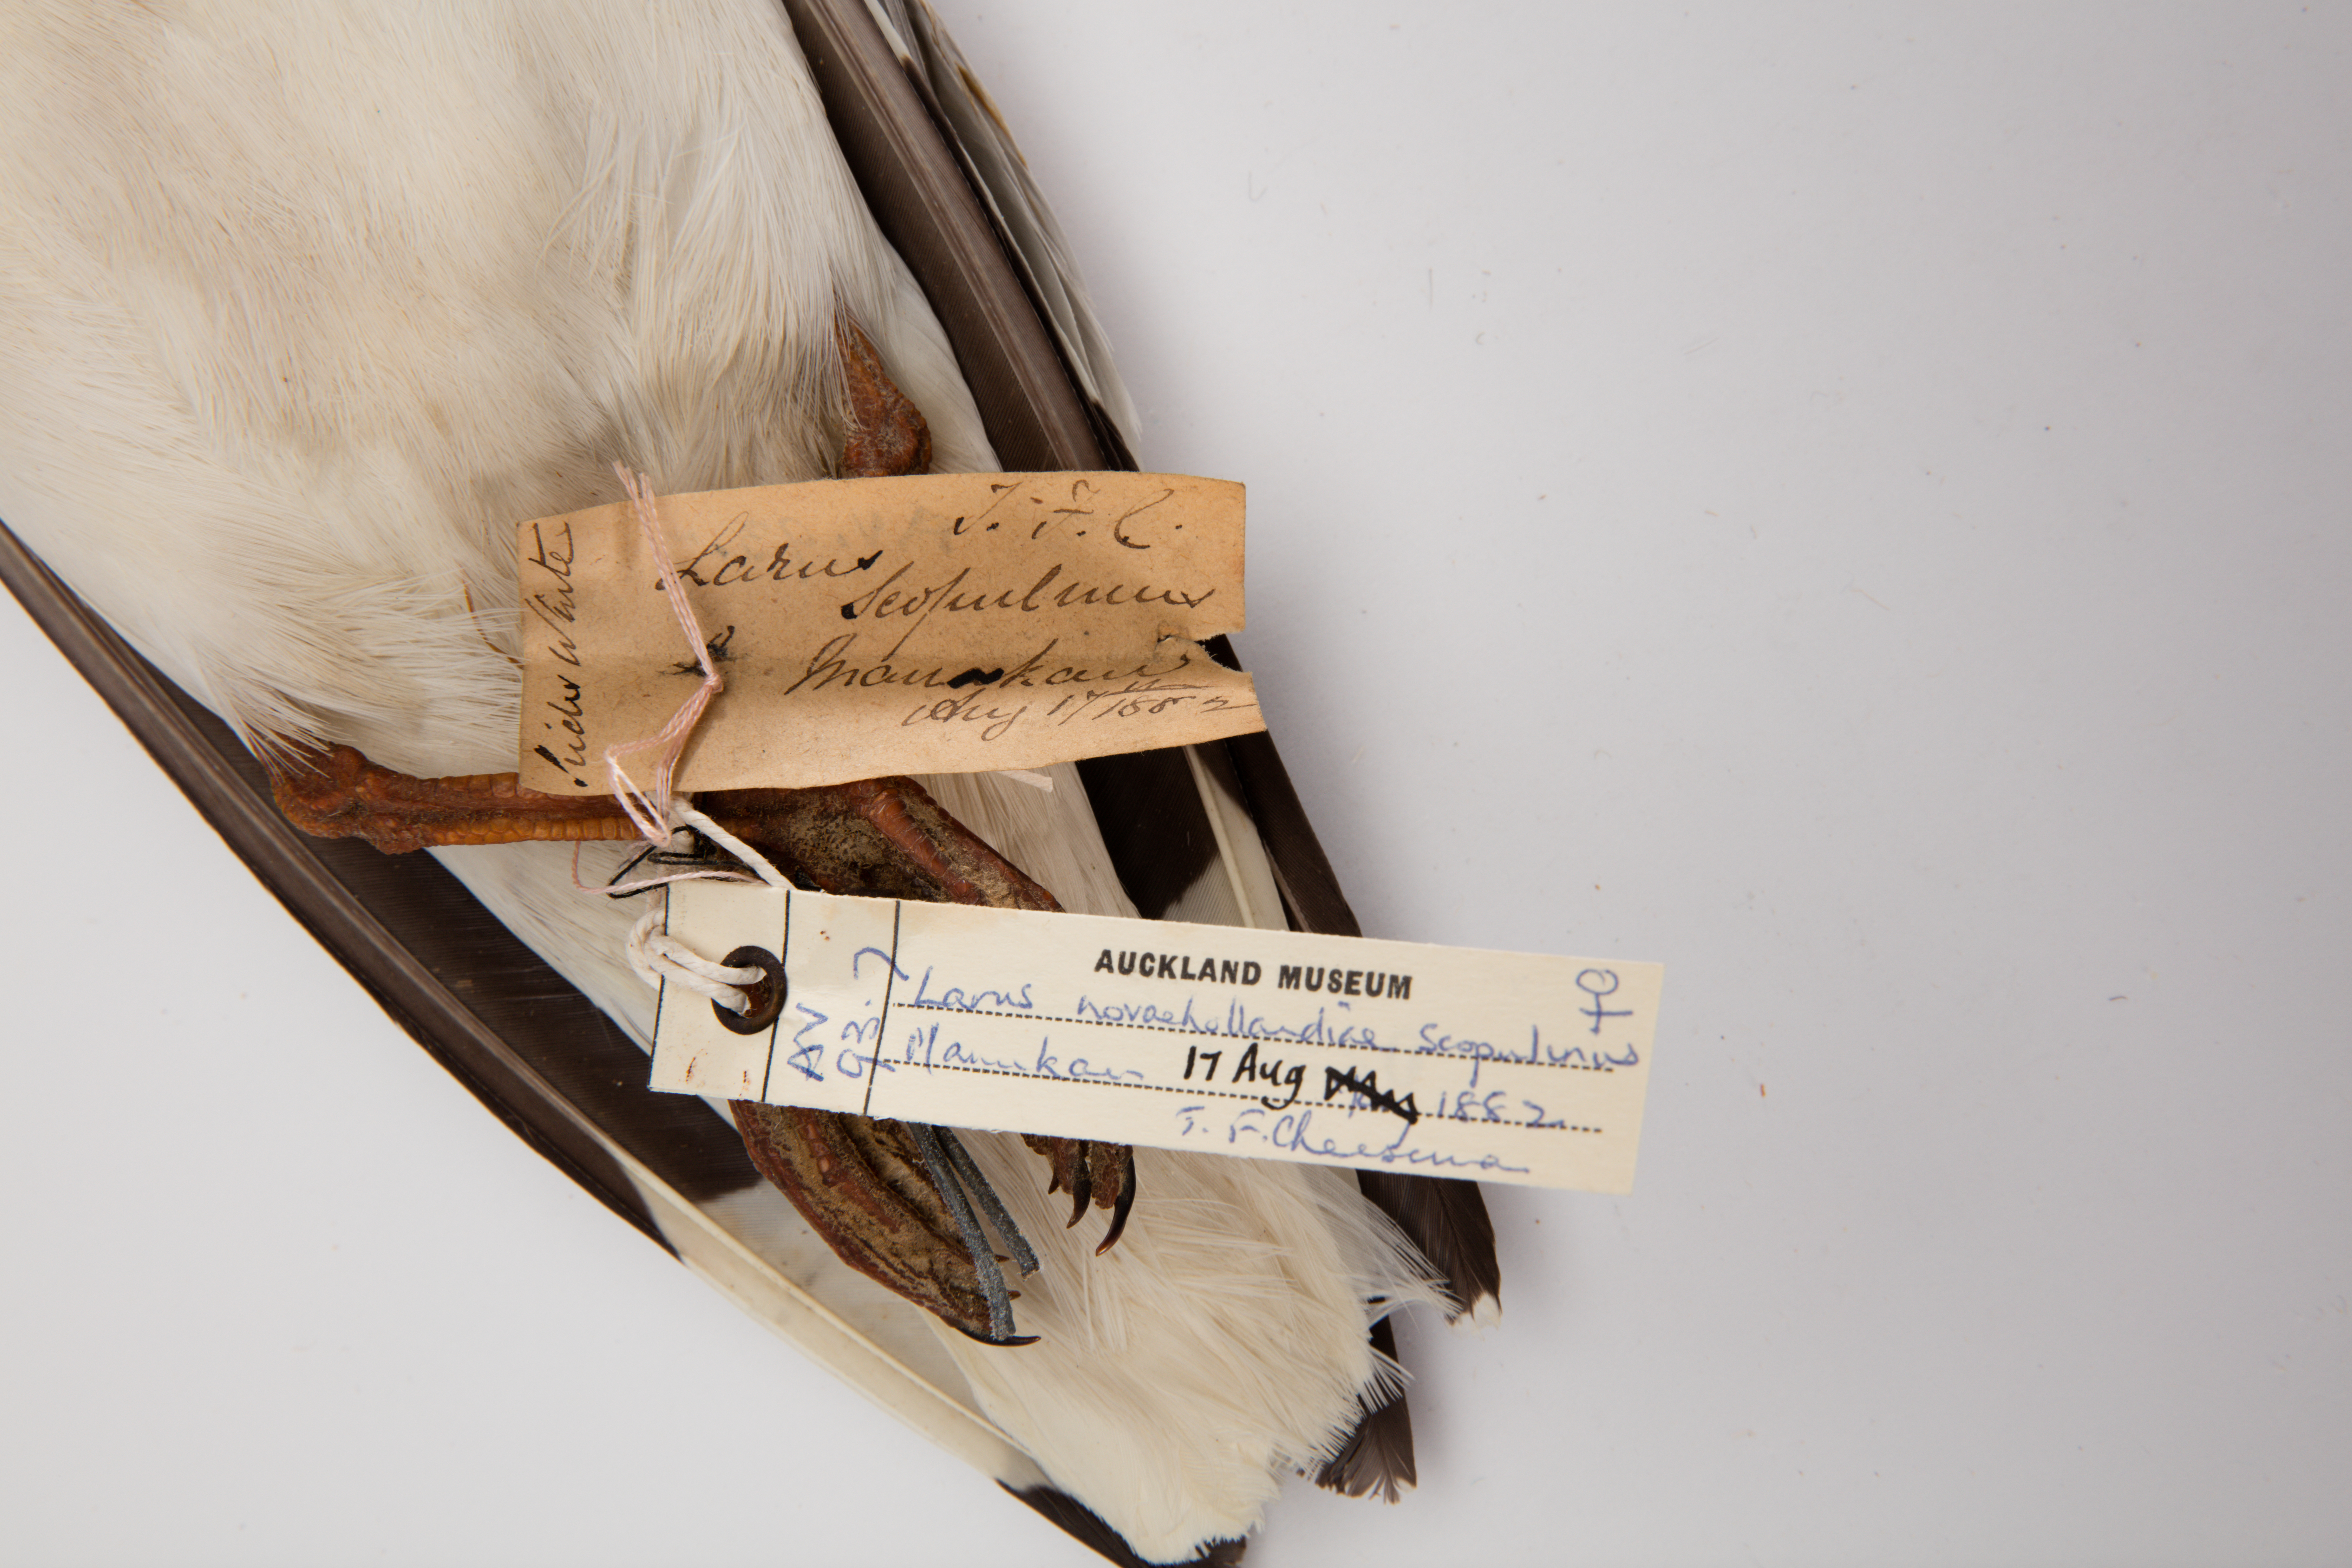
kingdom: Animalia
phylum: Chordata
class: Aves
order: Charadriiformes
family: Laridae
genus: Chroicocephalus
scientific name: Chroicocephalus novaehollandiae
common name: Silver gull
